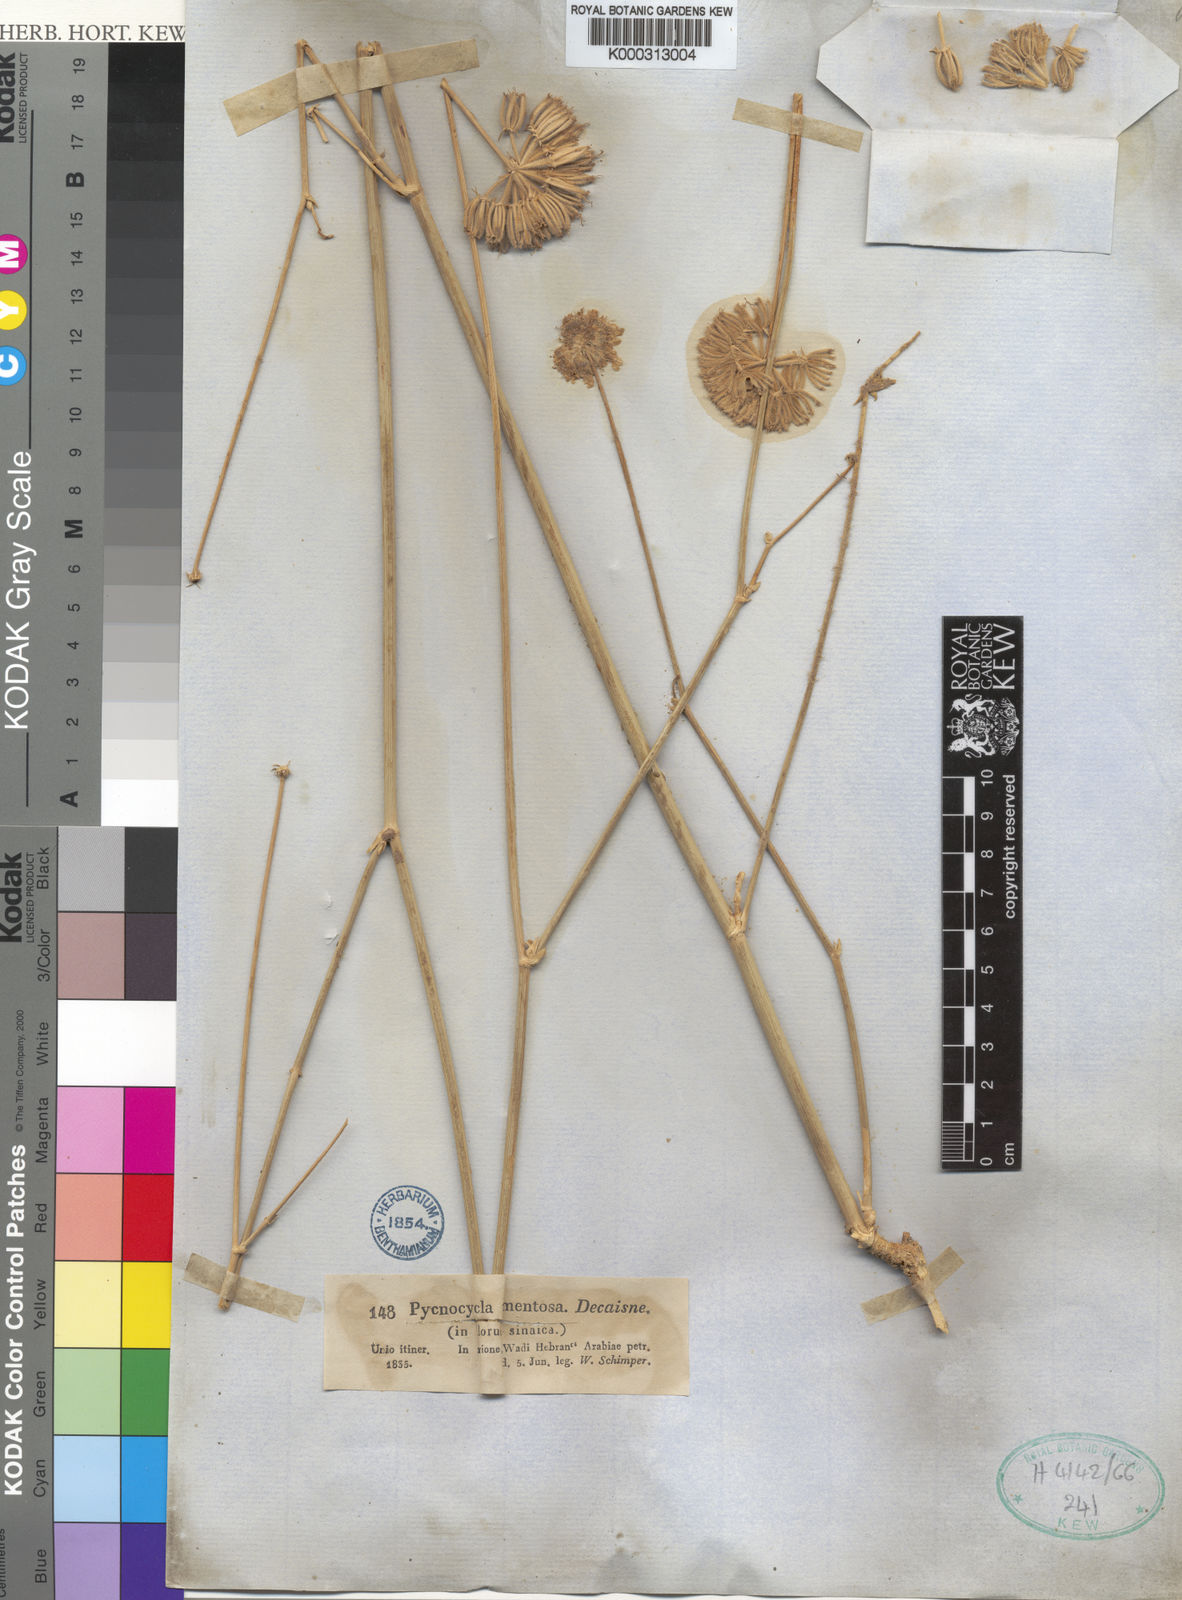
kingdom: Plantae
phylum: Tracheophyta
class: Magnoliopsida
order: Apiales
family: Apiaceae
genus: Pycnocycla
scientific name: Pycnocycla tomentosa
